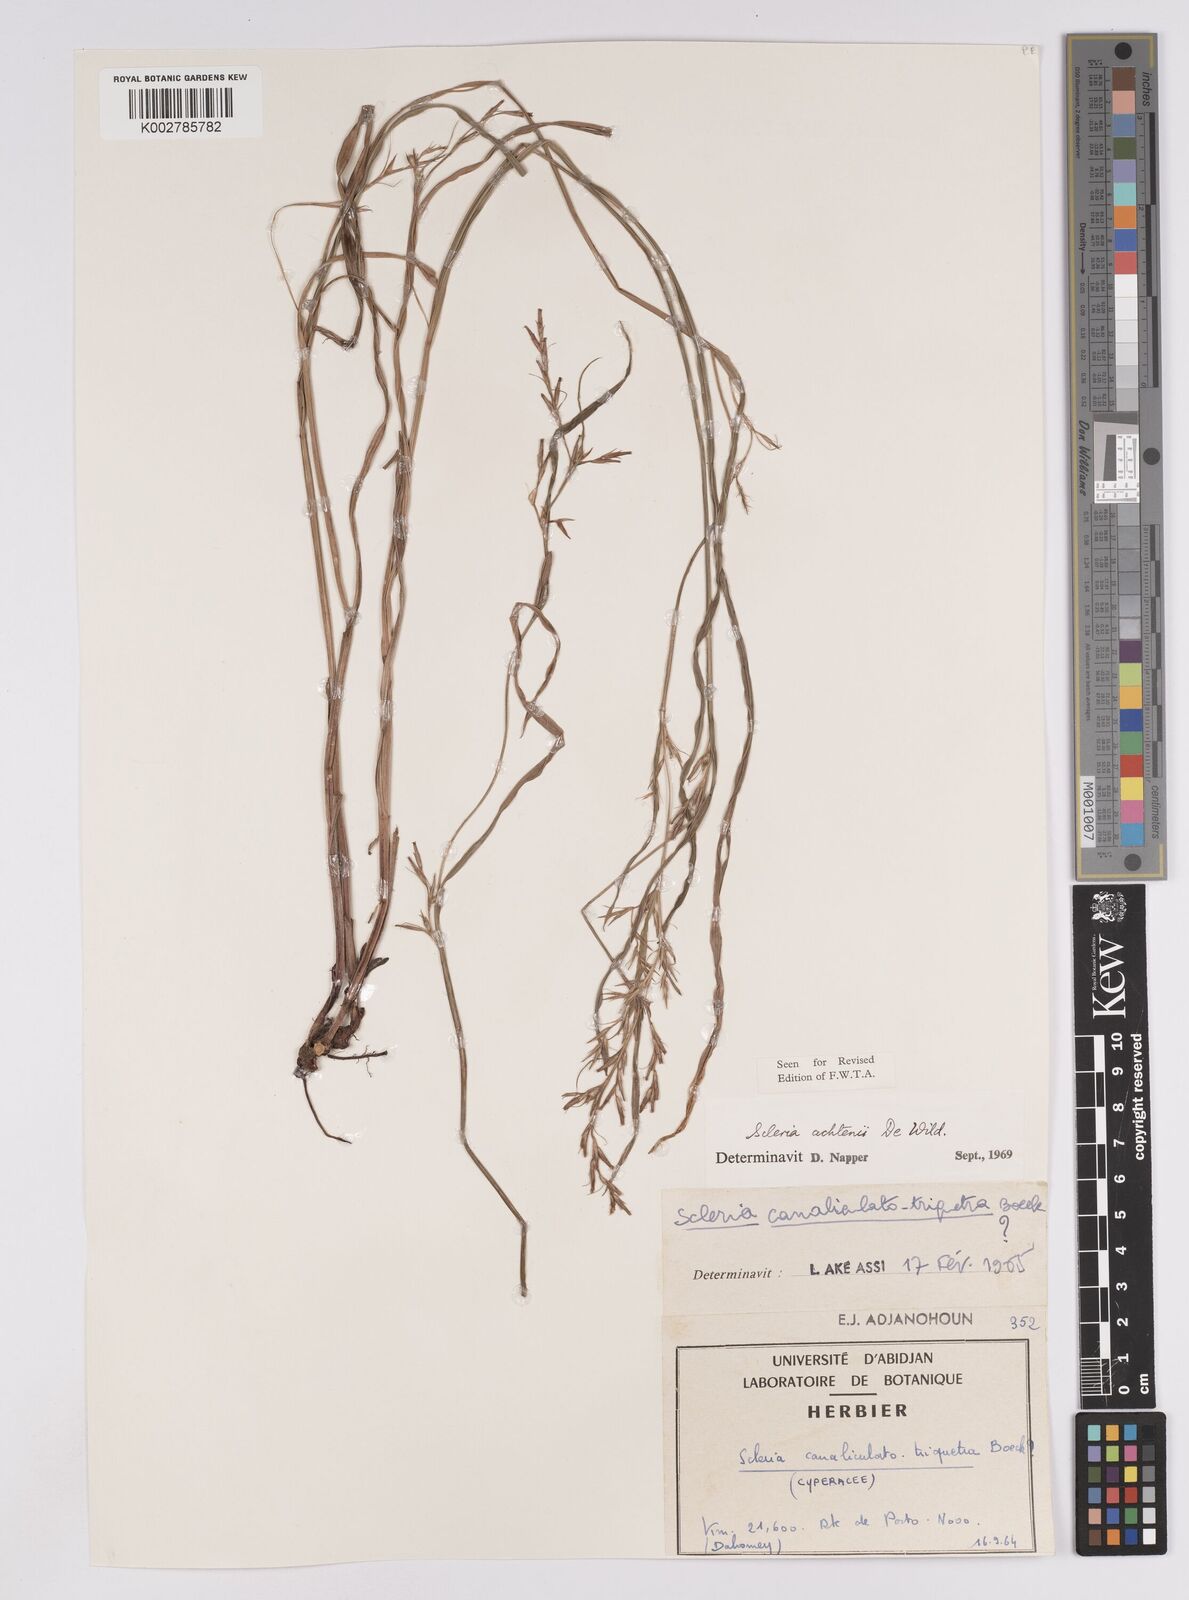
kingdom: Plantae
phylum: Tracheophyta
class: Liliopsida
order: Poales
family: Cyperaceae
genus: Scleria
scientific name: Scleria achtenii
